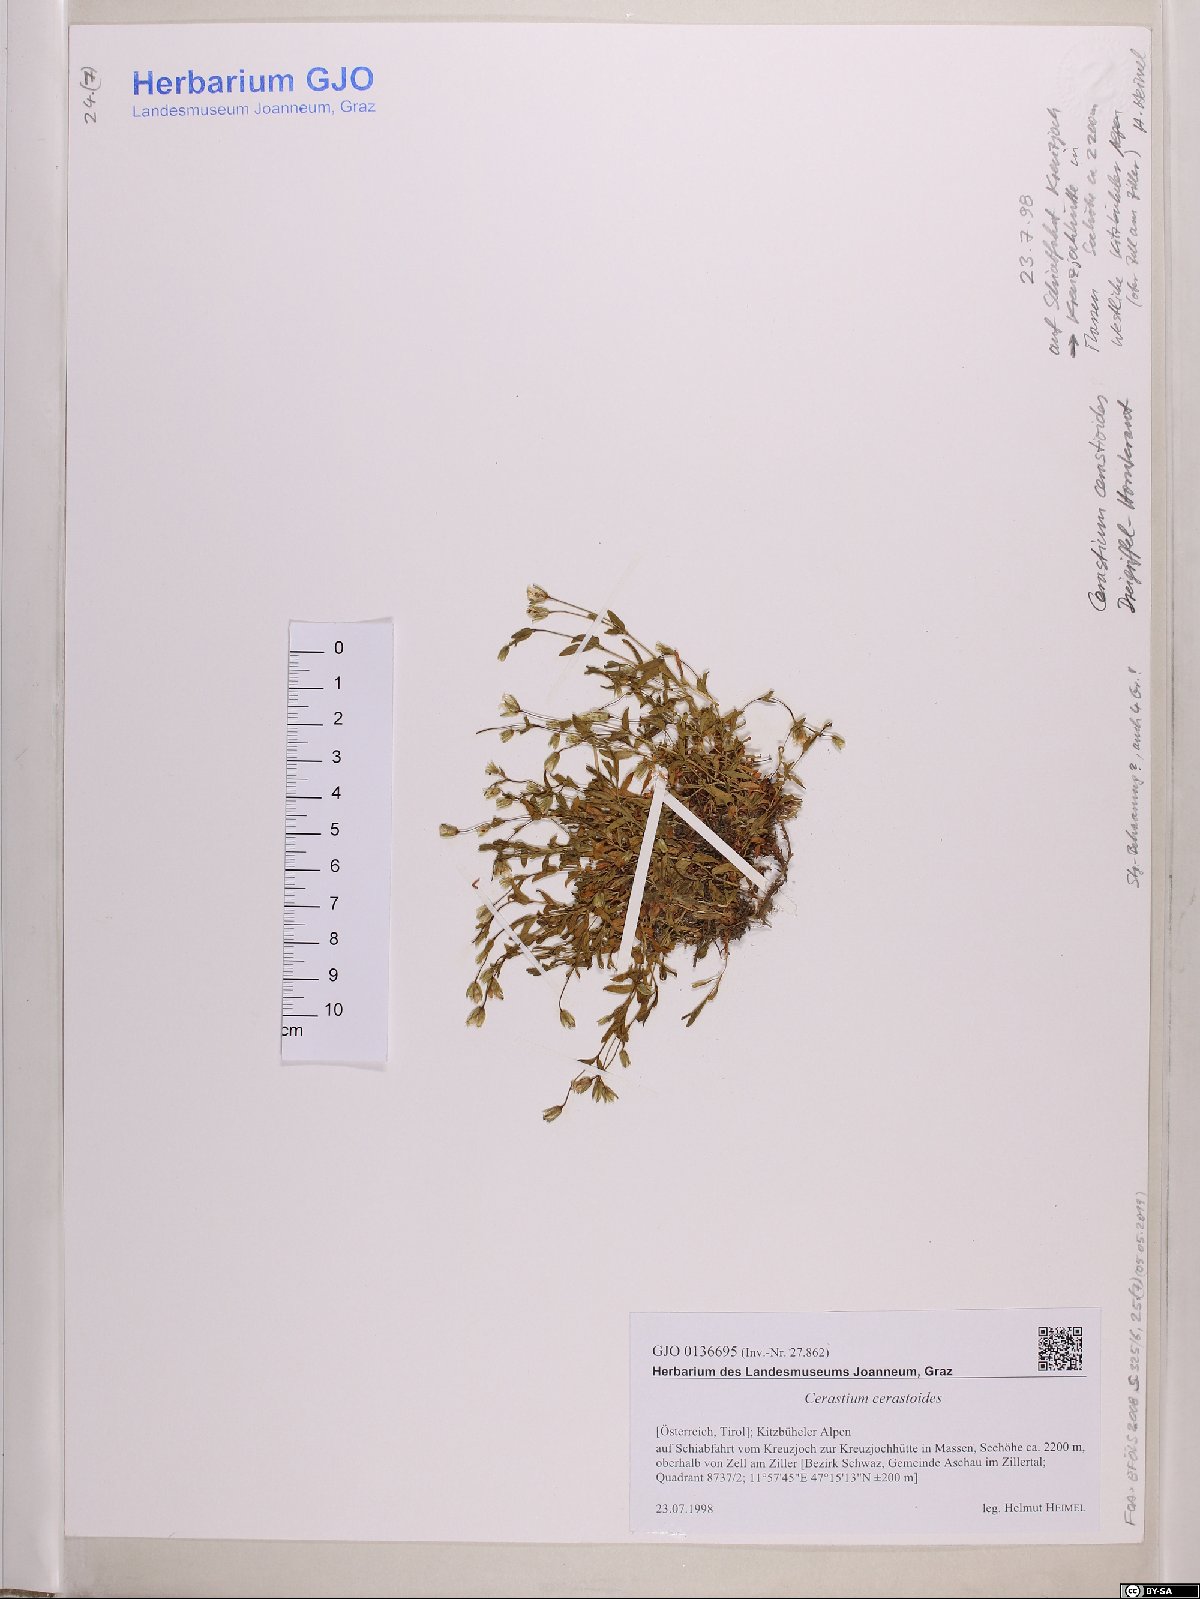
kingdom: Plantae
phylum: Tracheophyta
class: Magnoliopsida
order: Caryophyllales
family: Caryophyllaceae
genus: Dichodon
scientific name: Dichodon cerastoides
